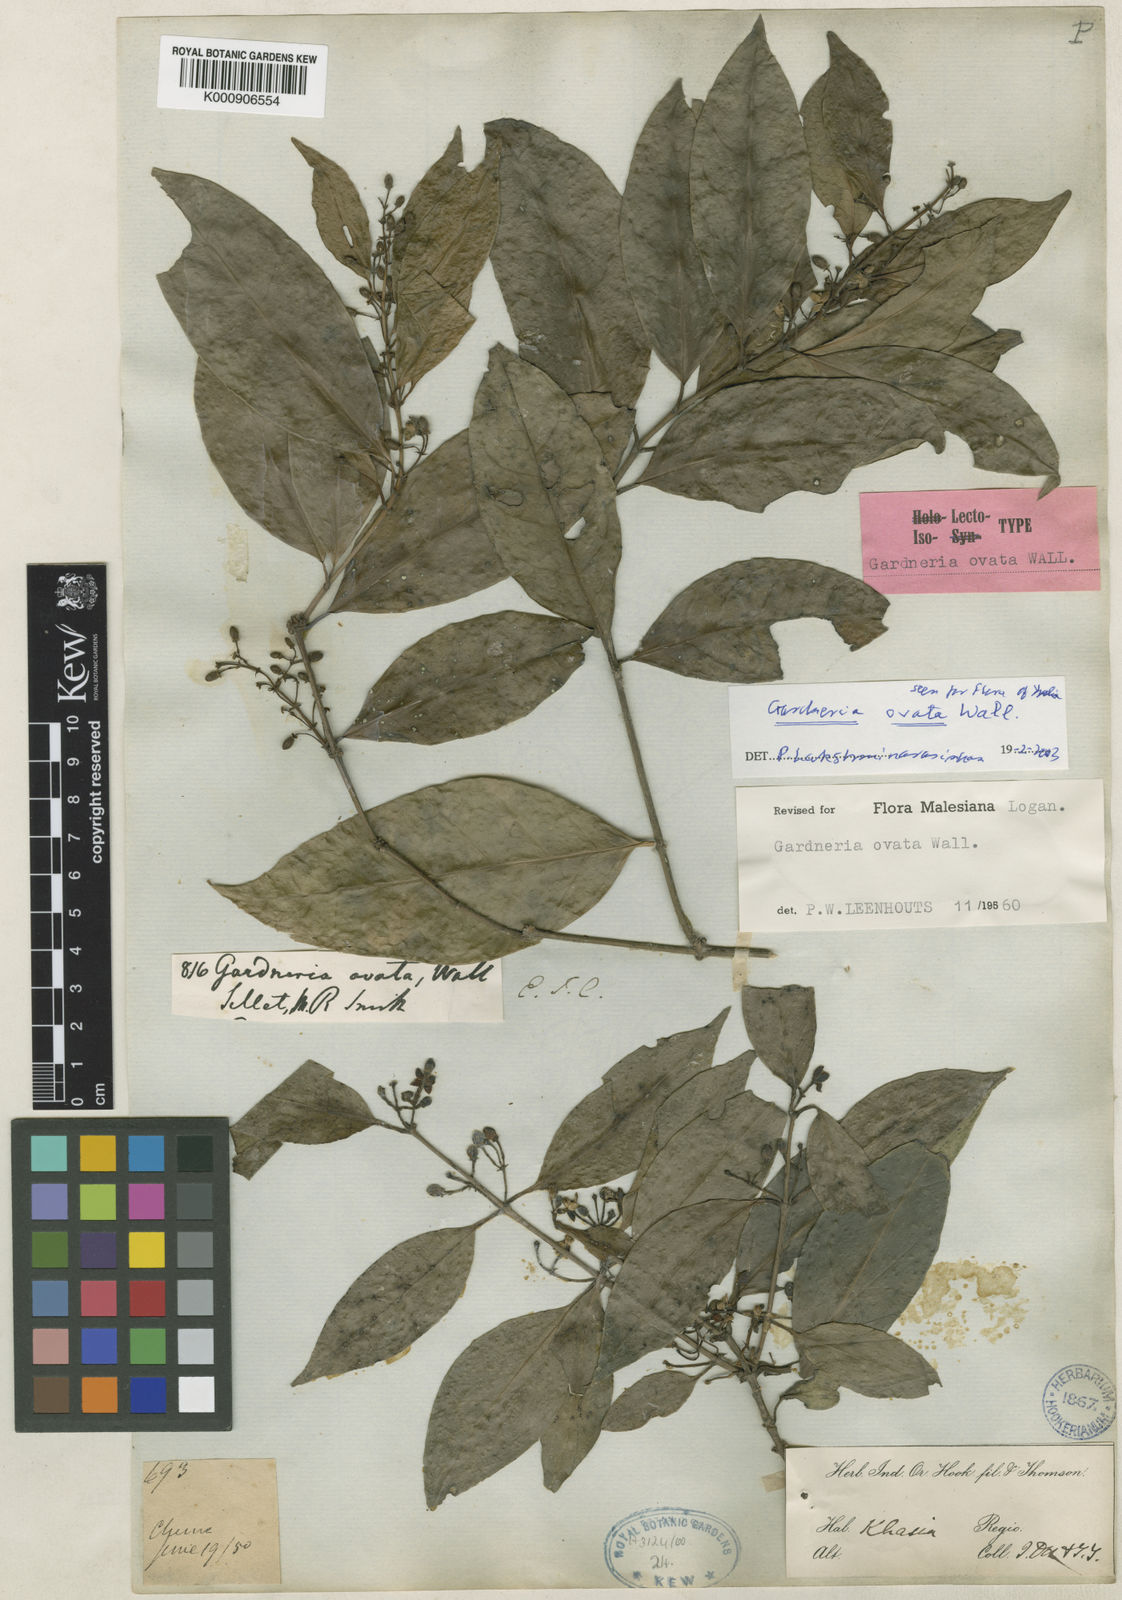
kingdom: Plantae
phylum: Tracheophyta
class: Magnoliopsida
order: Gentianales
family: Loganiaceae
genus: Gardneria
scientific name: Gardneria ovata
